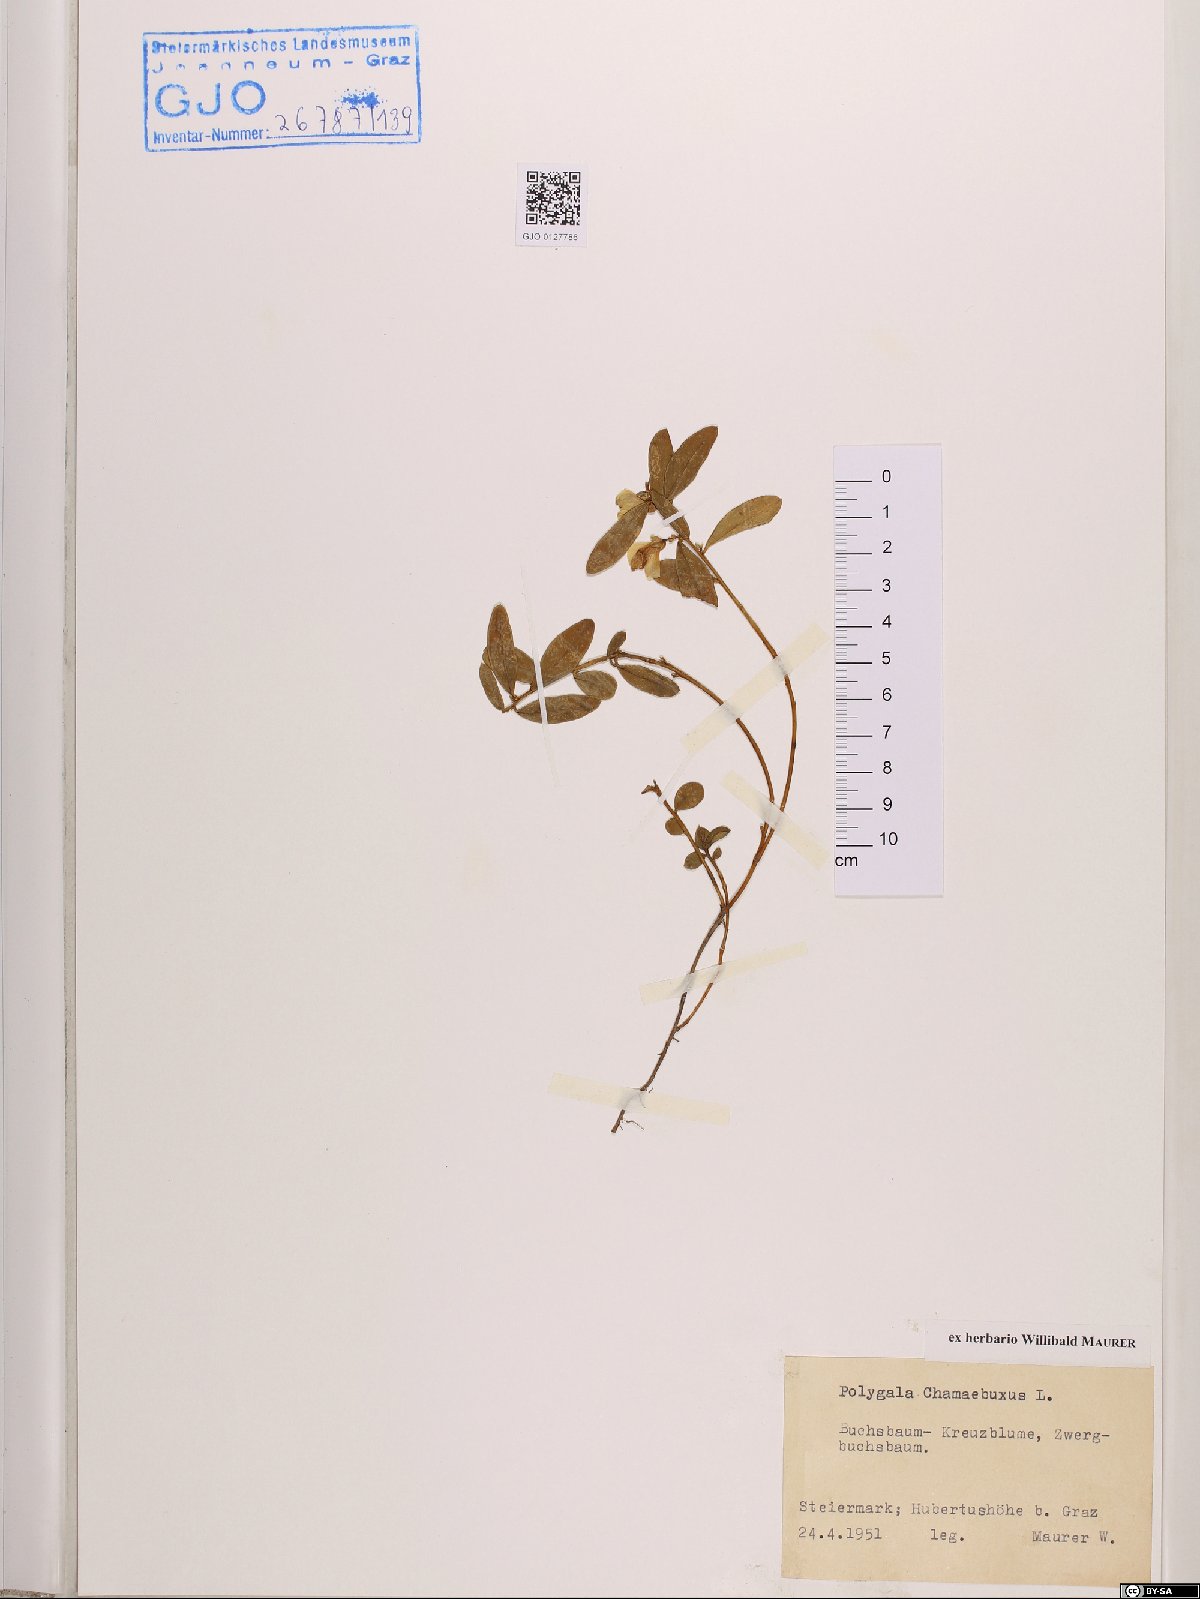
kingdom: Plantae
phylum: Tracheophyta
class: Magnoliopsida
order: Fabales
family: Polygalaceae
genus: Polygaloides
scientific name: Polygaloides chamaebuxus
